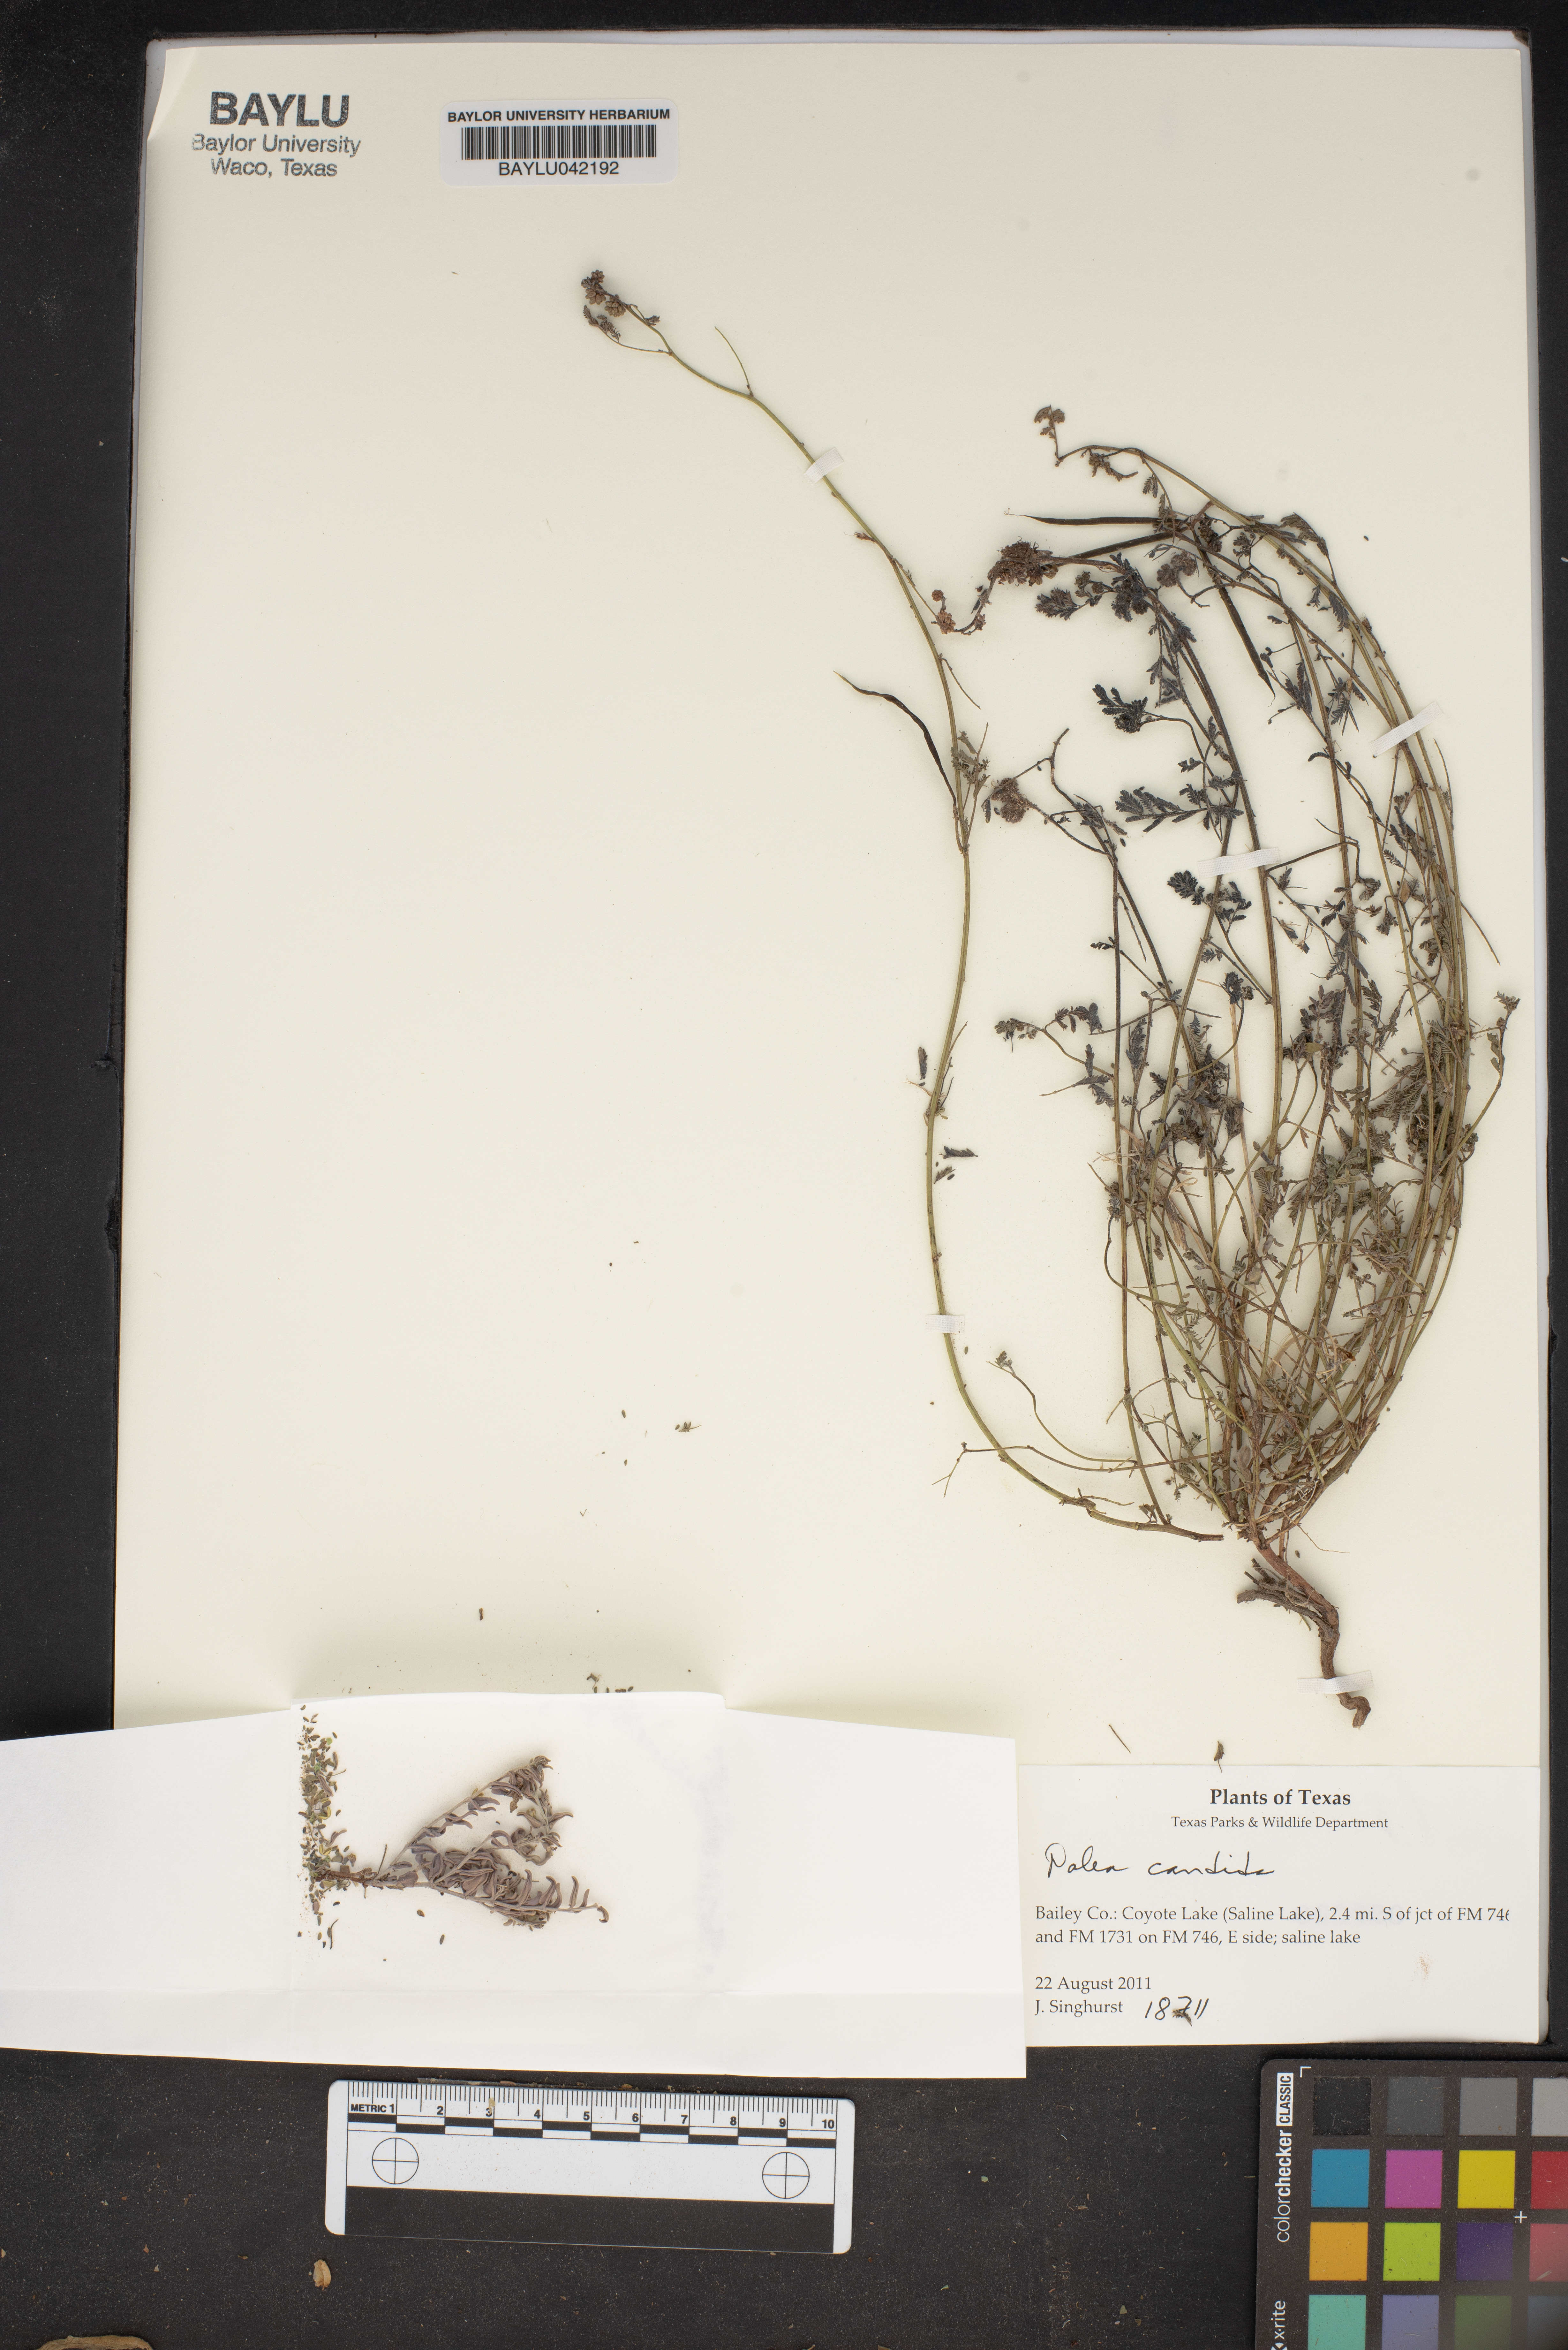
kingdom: Animalia
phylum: Chordata
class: Testudines
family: Trionychidae
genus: Palea
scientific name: Palea
